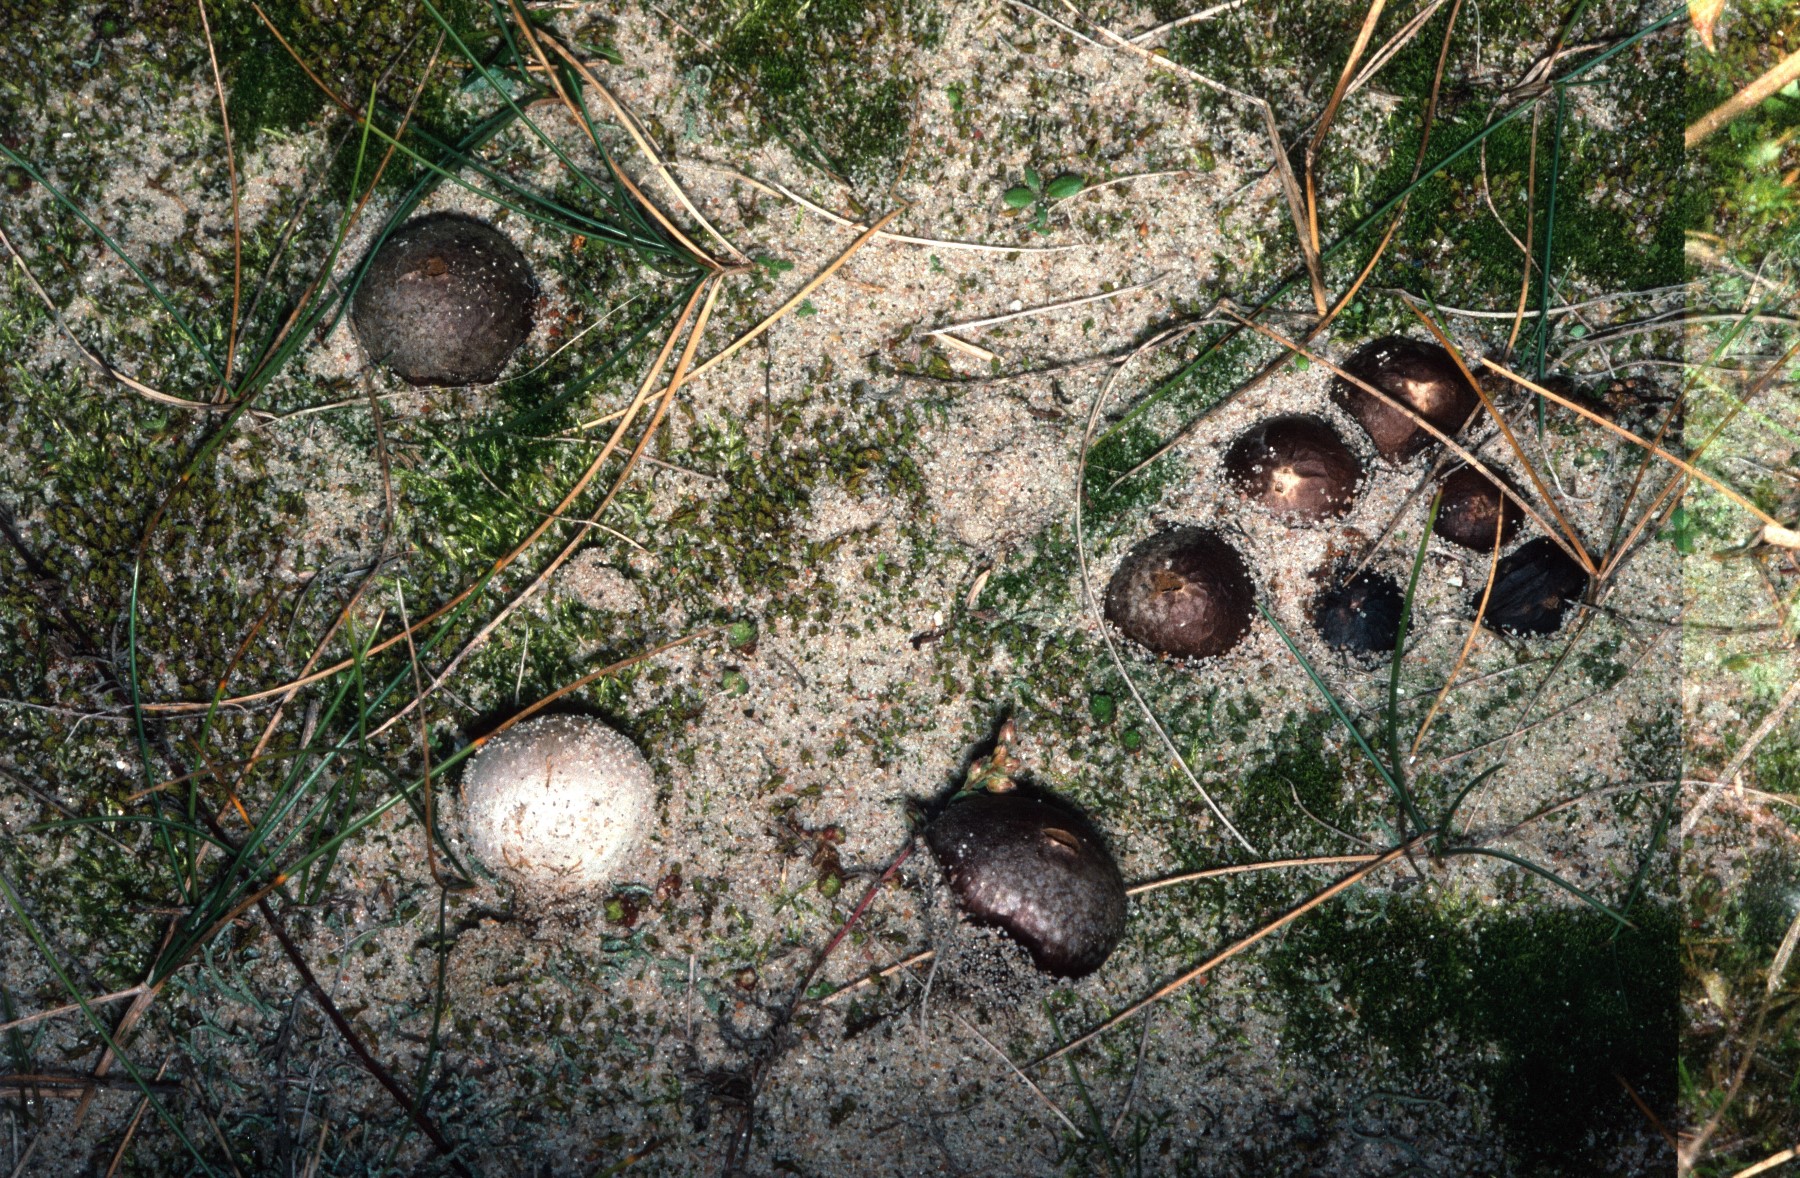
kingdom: Fungi
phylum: Basidiomycota
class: Agaricomycetes
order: Agaricales
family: Lycoperdaceae
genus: Bovista
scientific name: Bovista
